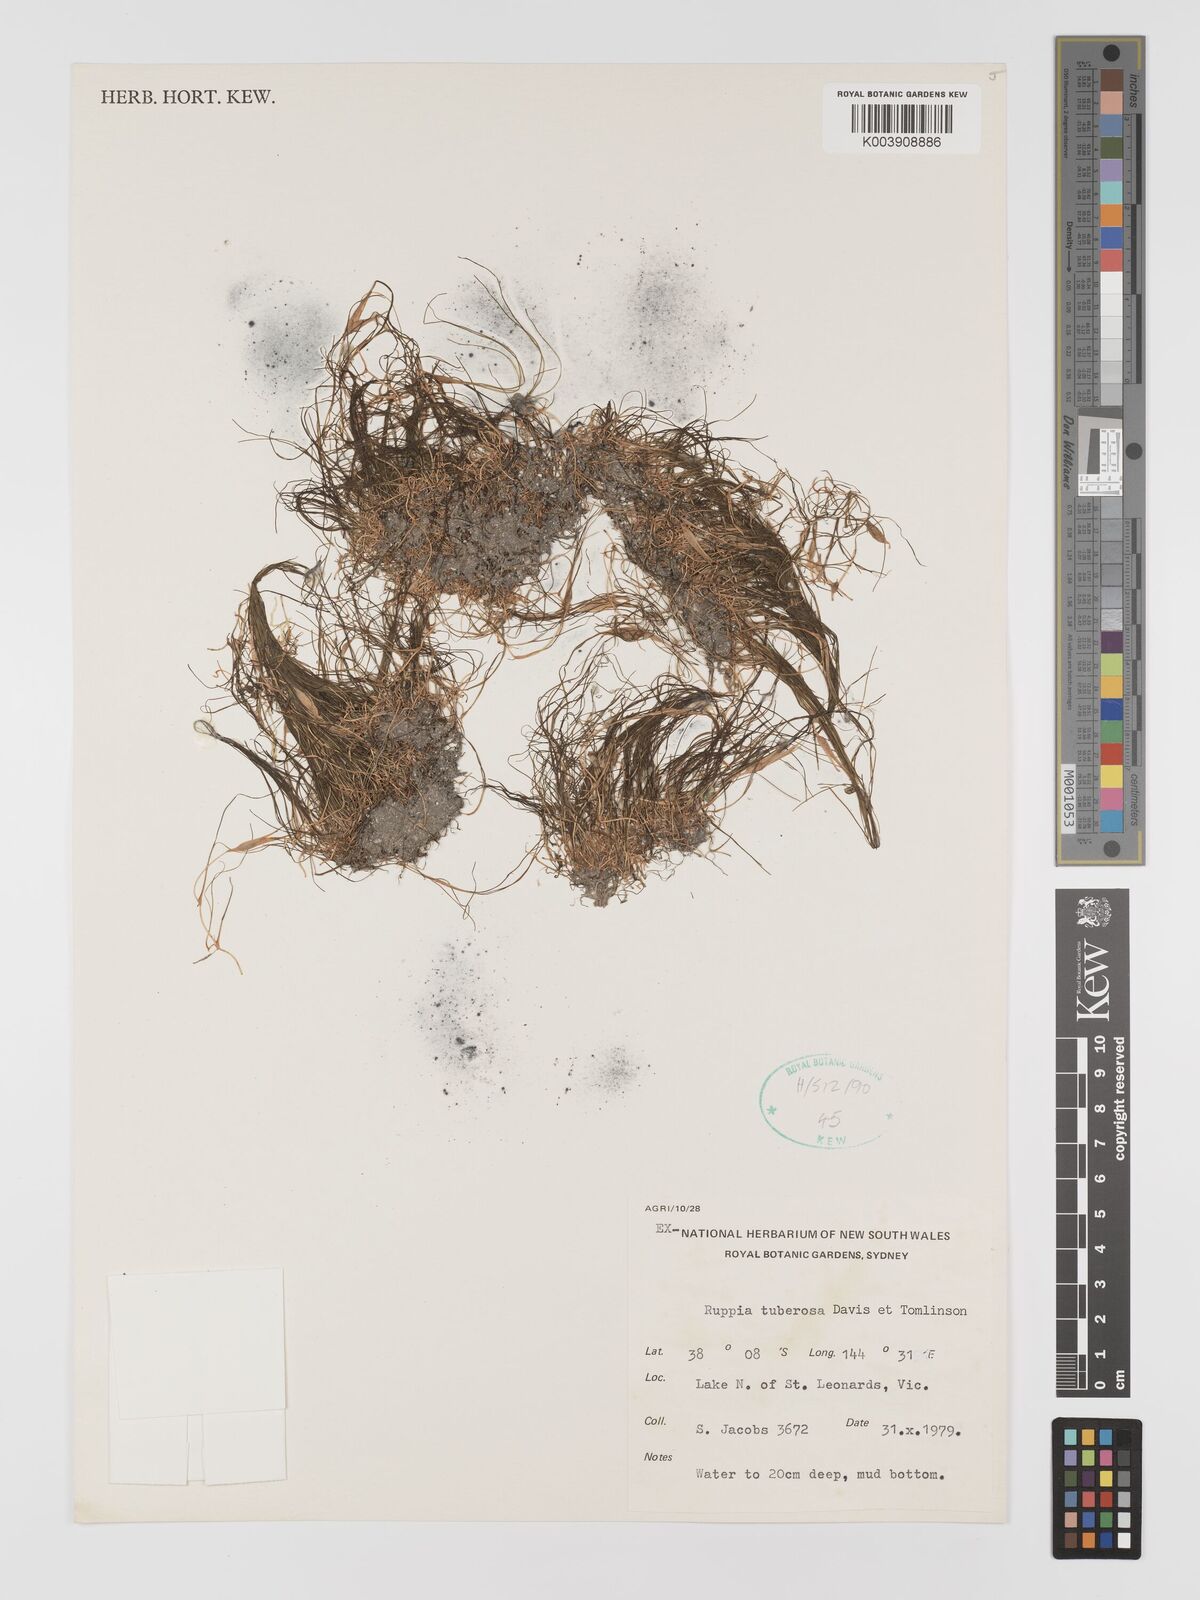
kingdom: Plantae
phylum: Tracheophyta
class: Liliopsida
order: Alismatales
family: Ruppiaceae
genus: Ruppia
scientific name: Ruppia tuberosa
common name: Species code: rt
